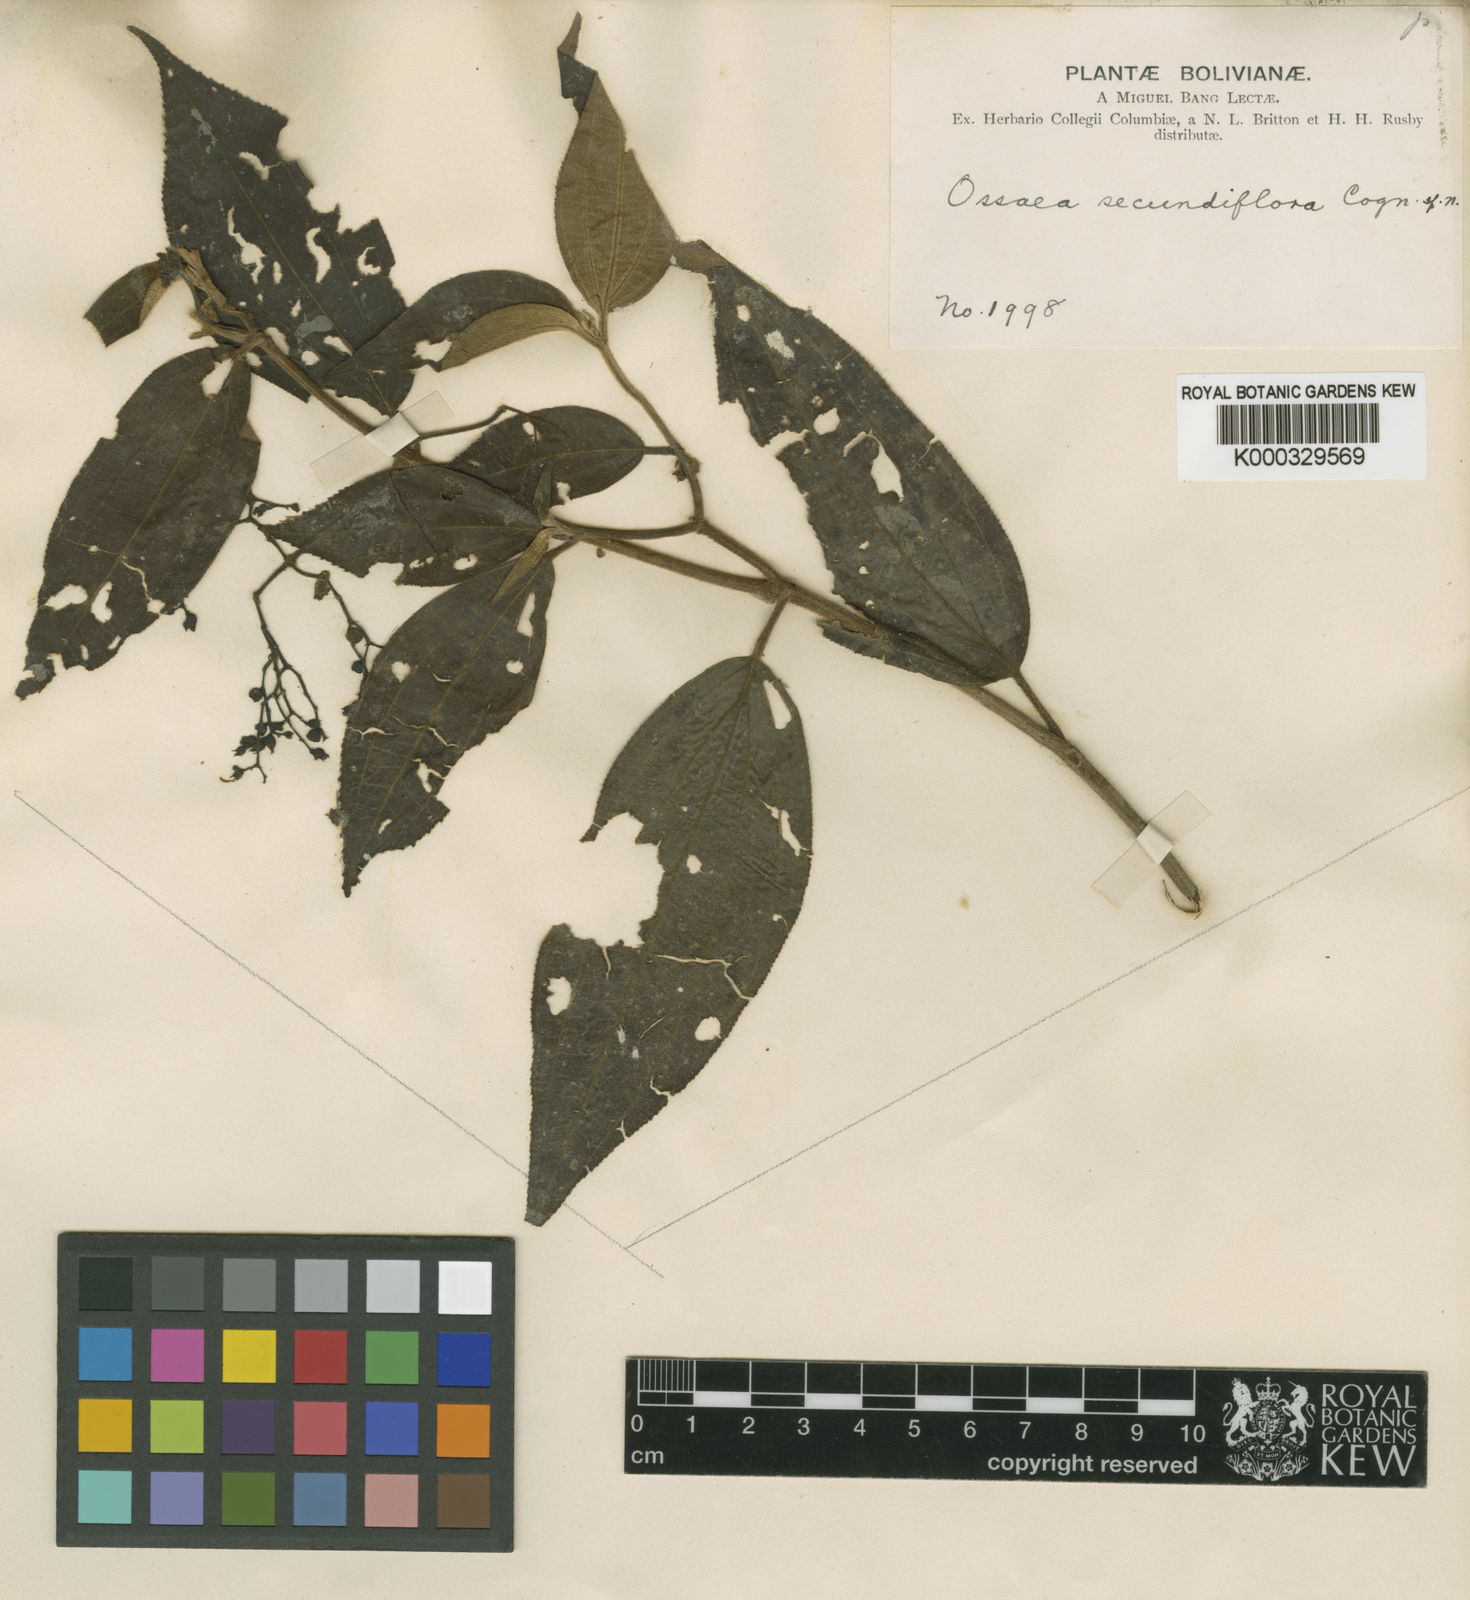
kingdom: Plantae
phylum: Tracheophyta
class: Magnoliopsida
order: Myrtales
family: Melastomataceae
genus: Miconia
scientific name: Miconia bisecundiflora
